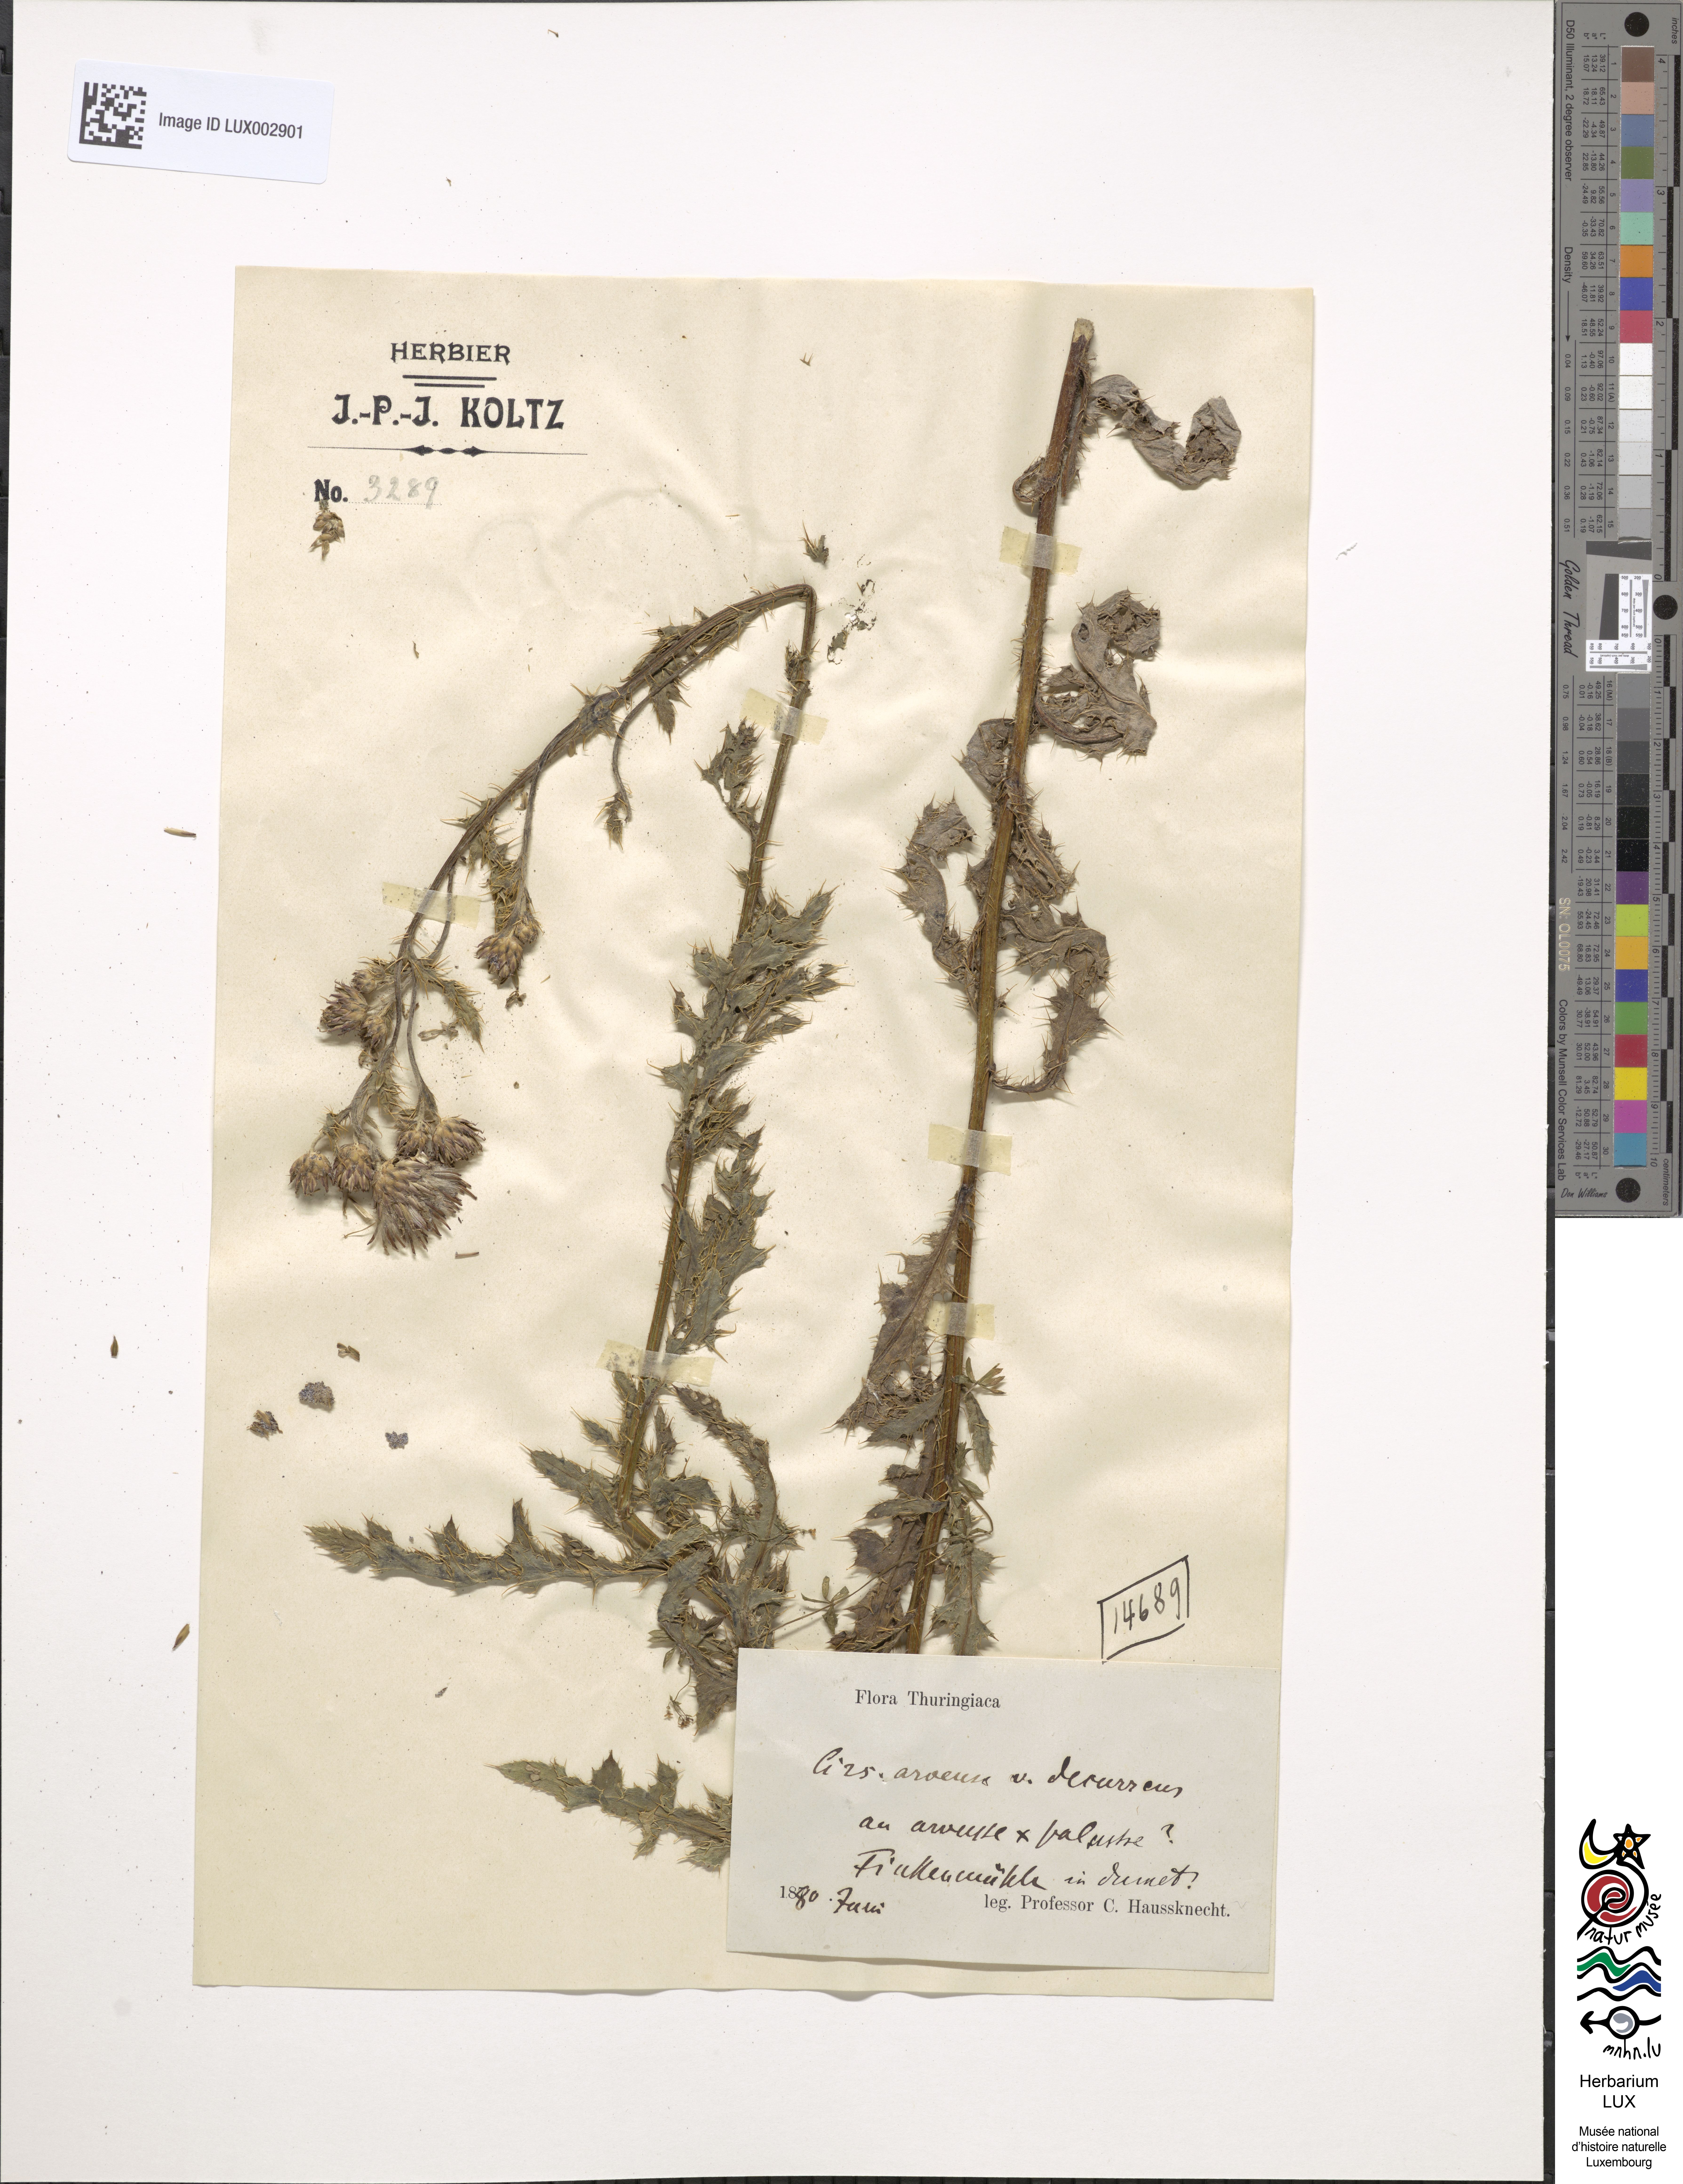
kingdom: Plantae
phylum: Tracheophyta
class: Magnoliopsida
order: Asterales
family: Asteraceae
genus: Cirsium
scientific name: Cirsium arvense
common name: Creeping thistle
